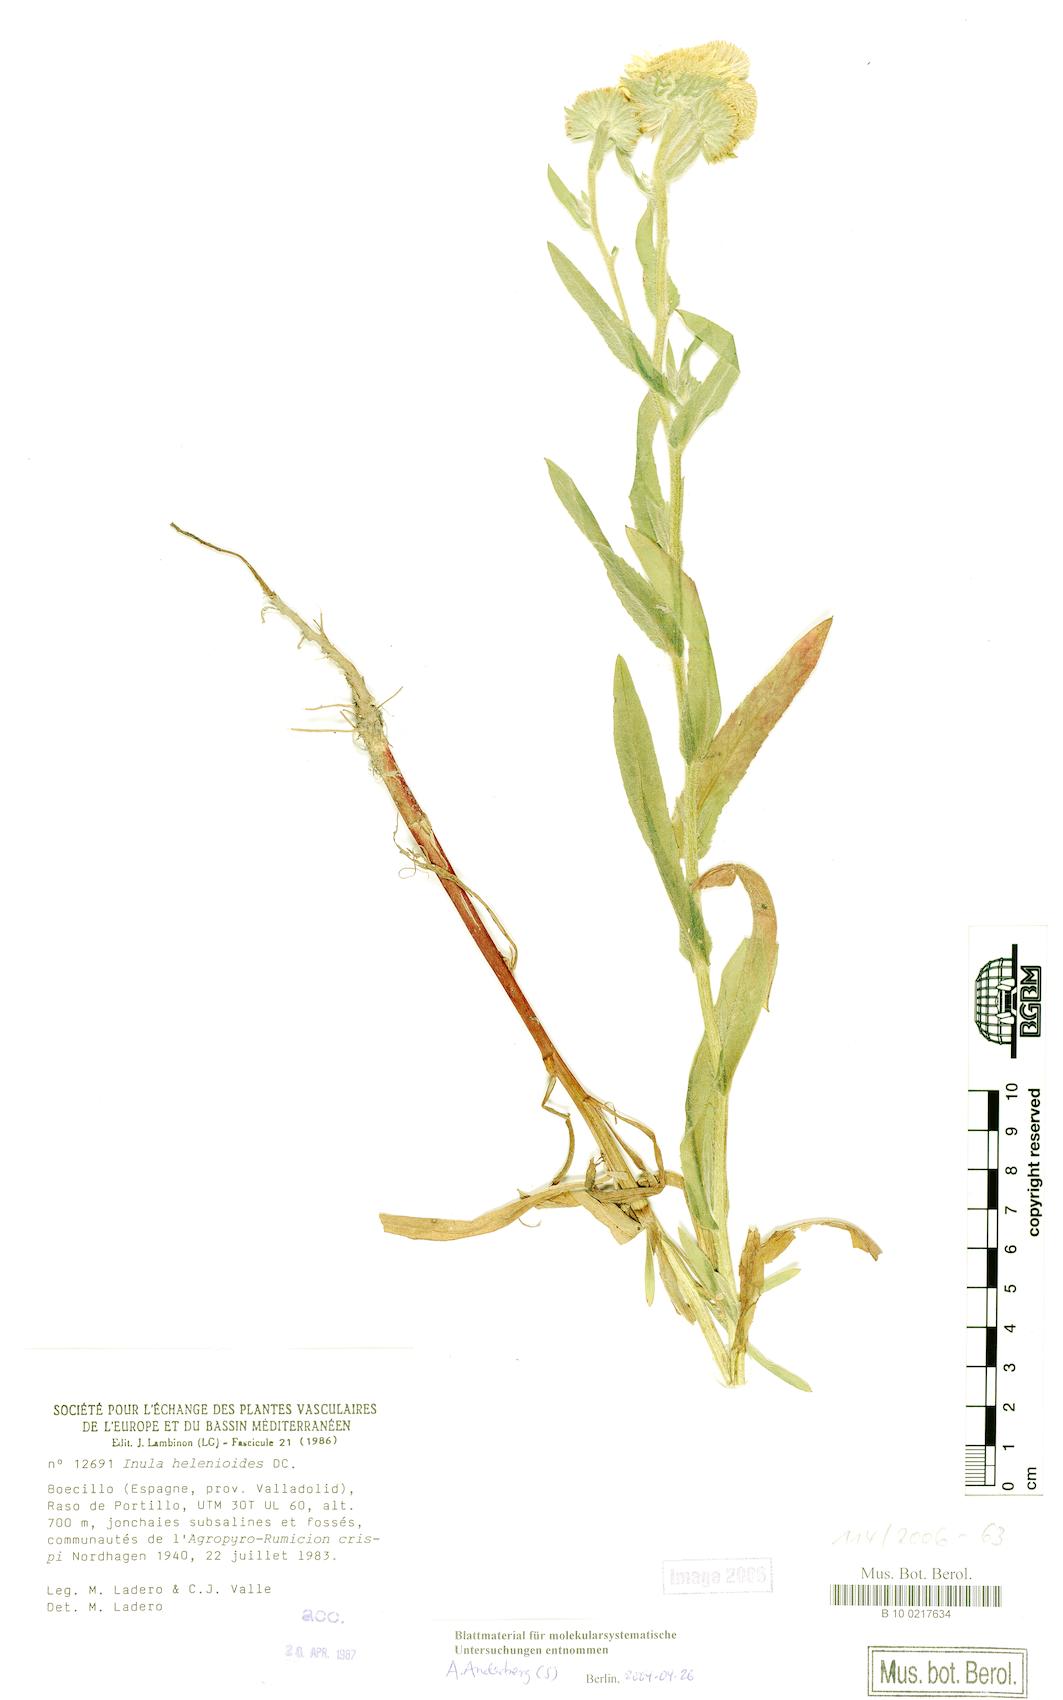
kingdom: Plantae
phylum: Tracheophyta
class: Magnoliopsida
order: Asterales
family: Asteraceae
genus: Pentanema
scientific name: Pentanema helenioides
